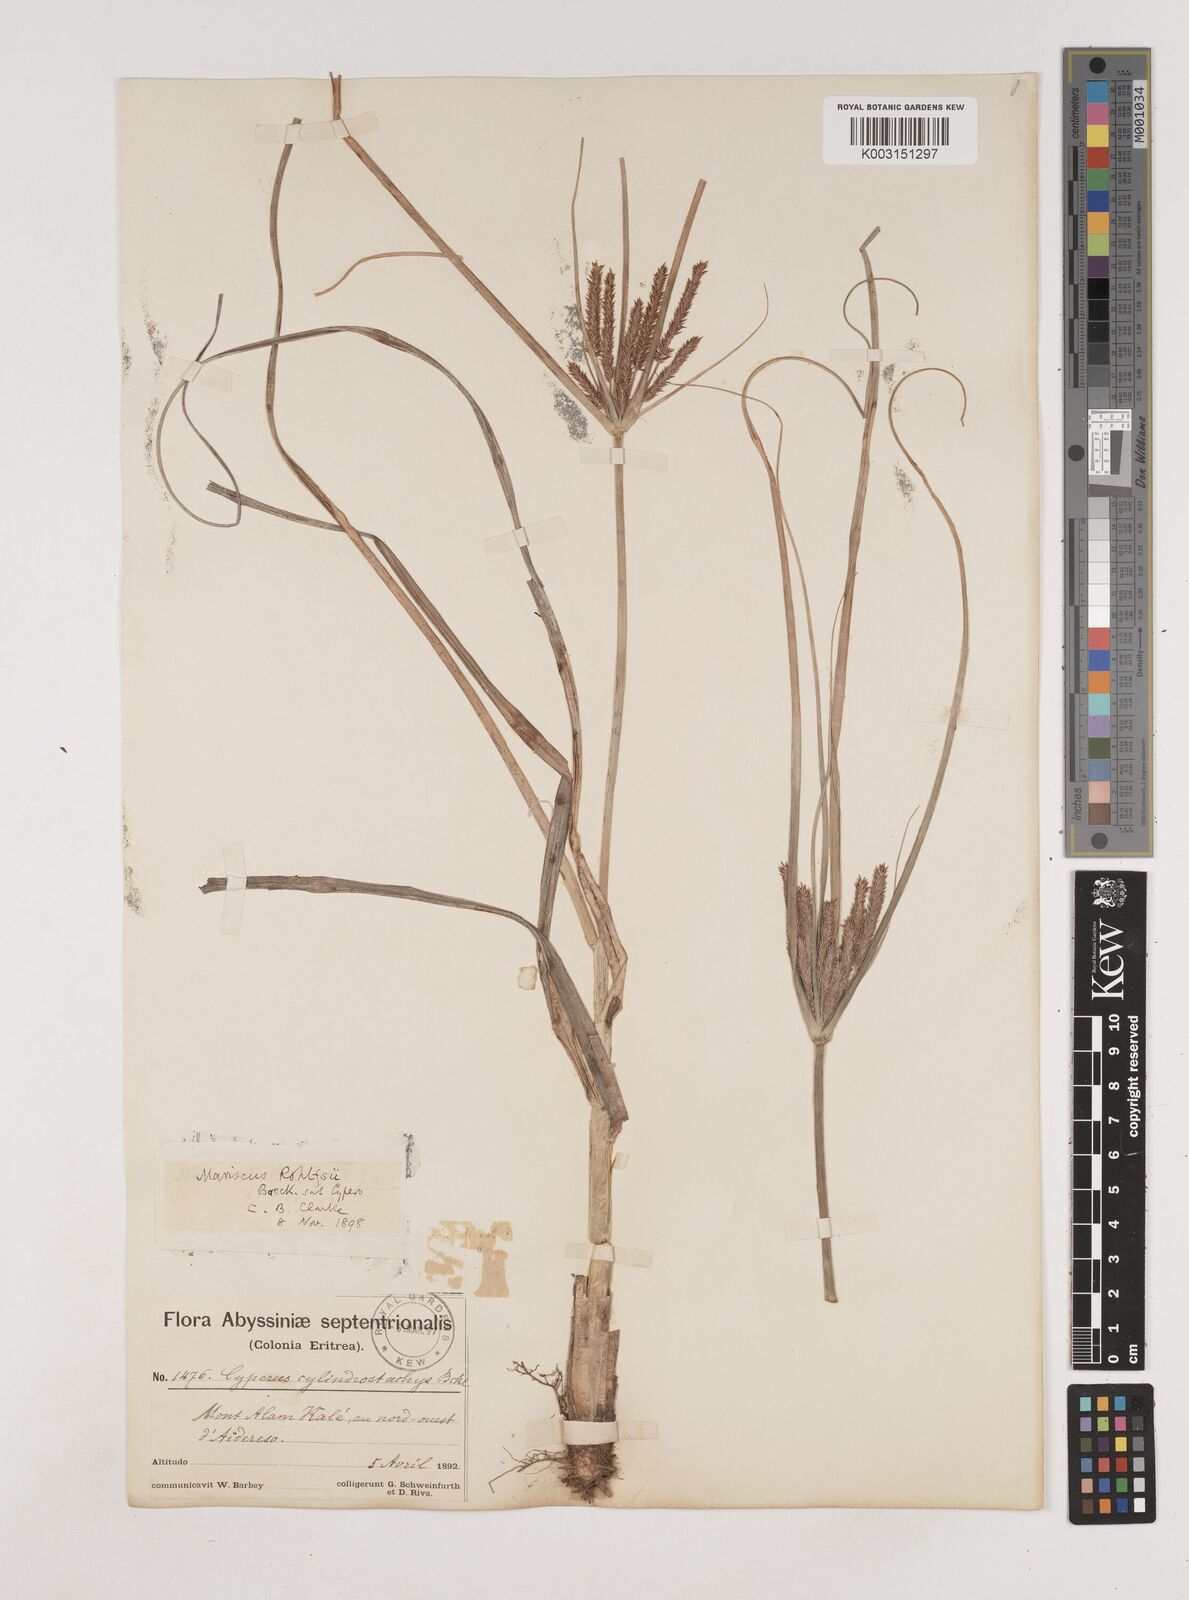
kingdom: Plantae
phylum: Tracheophyta
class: Liliopsida
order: Poales
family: Cyperaceae
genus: Cyperus
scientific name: Cyperus impubes
